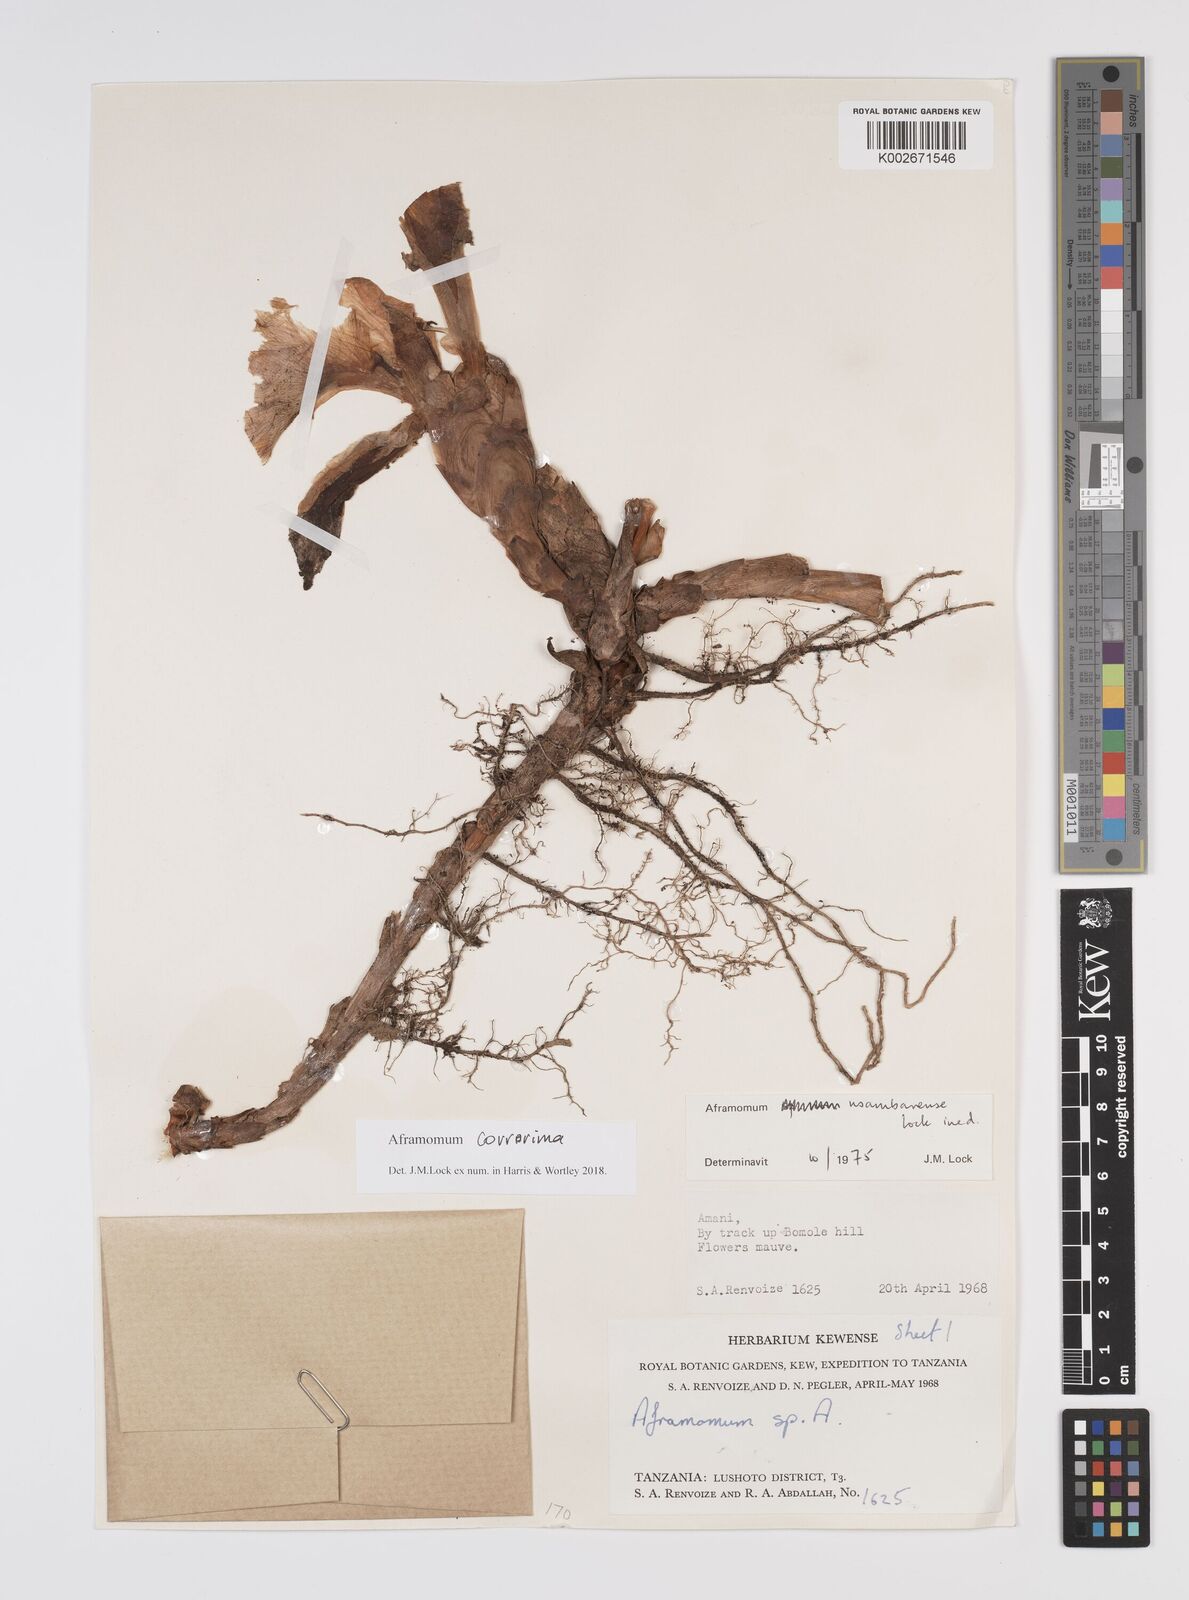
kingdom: Plantae
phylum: Tracheophyta
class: Liliopsida
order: Zingiberales
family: Zingiberaceae
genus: Aframomum
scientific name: Aframomum corrorima
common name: Ethiopian cardamom
